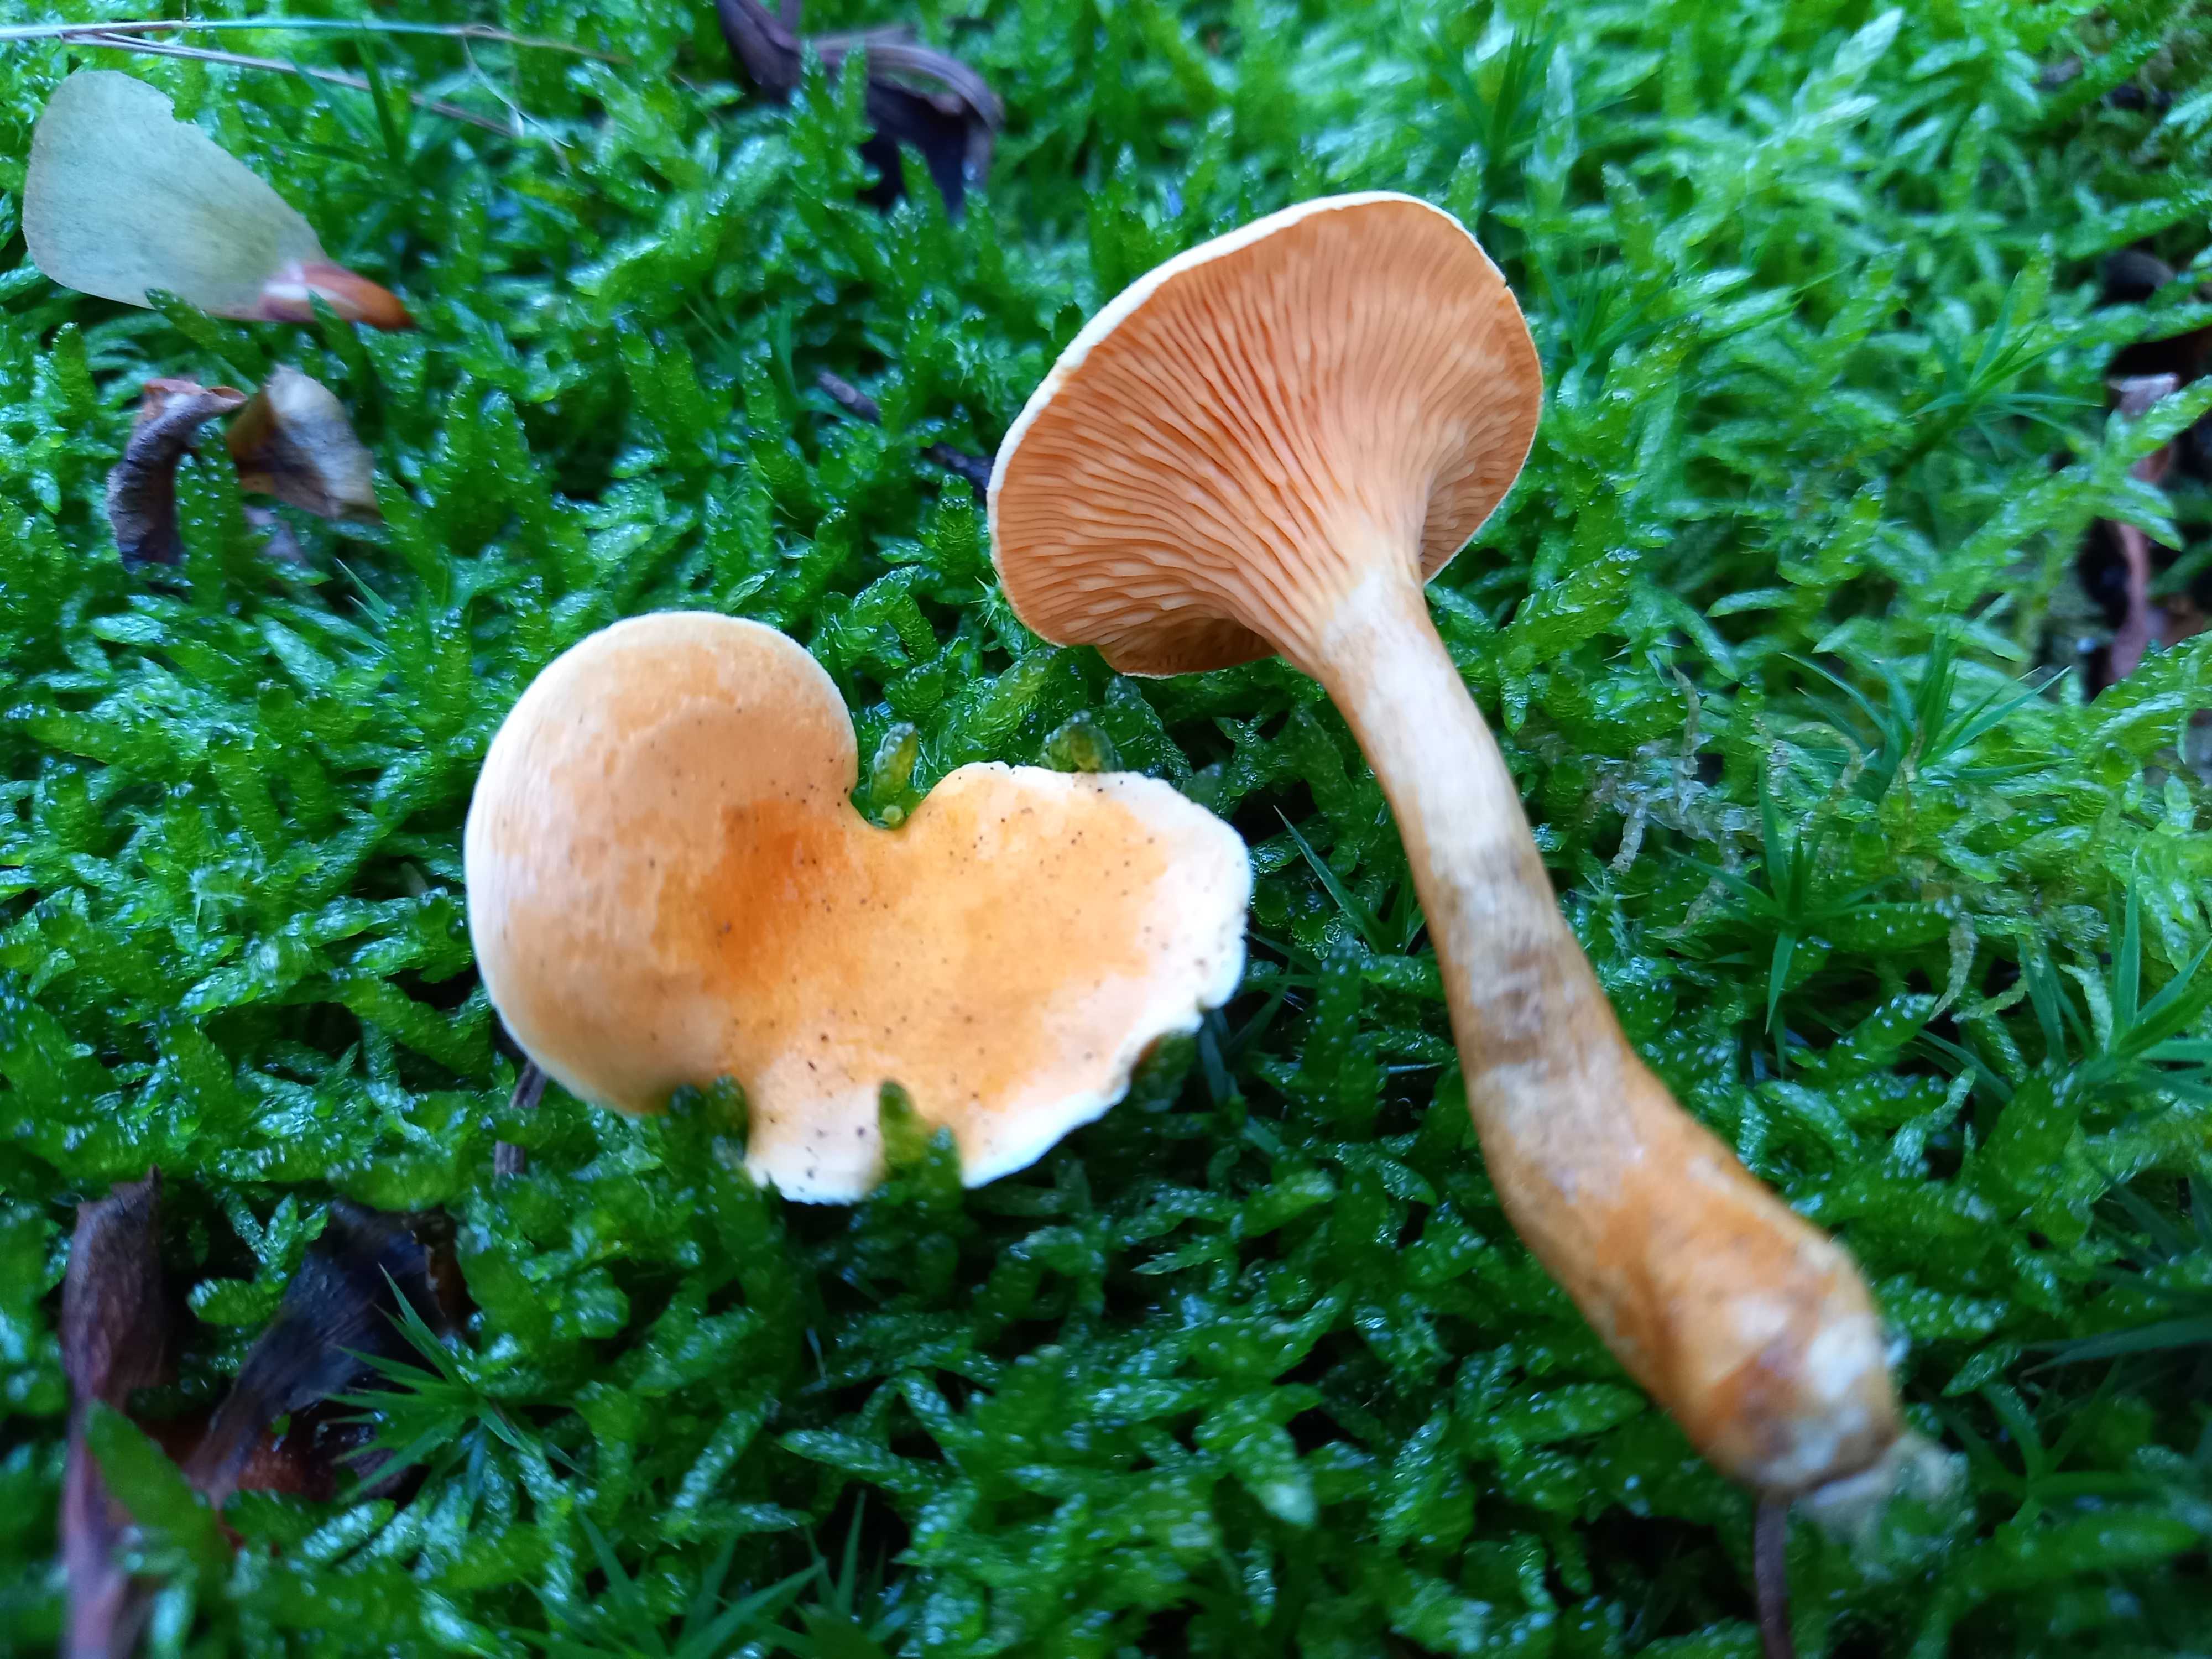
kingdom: Fungi
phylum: Basidiomycota
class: Agaricomycetes
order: Boletales
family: Hygrophoropsidaceae
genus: Hygrophoropsis
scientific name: Hygrophoropsis aurantiaca
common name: almindelig orangekantarel
